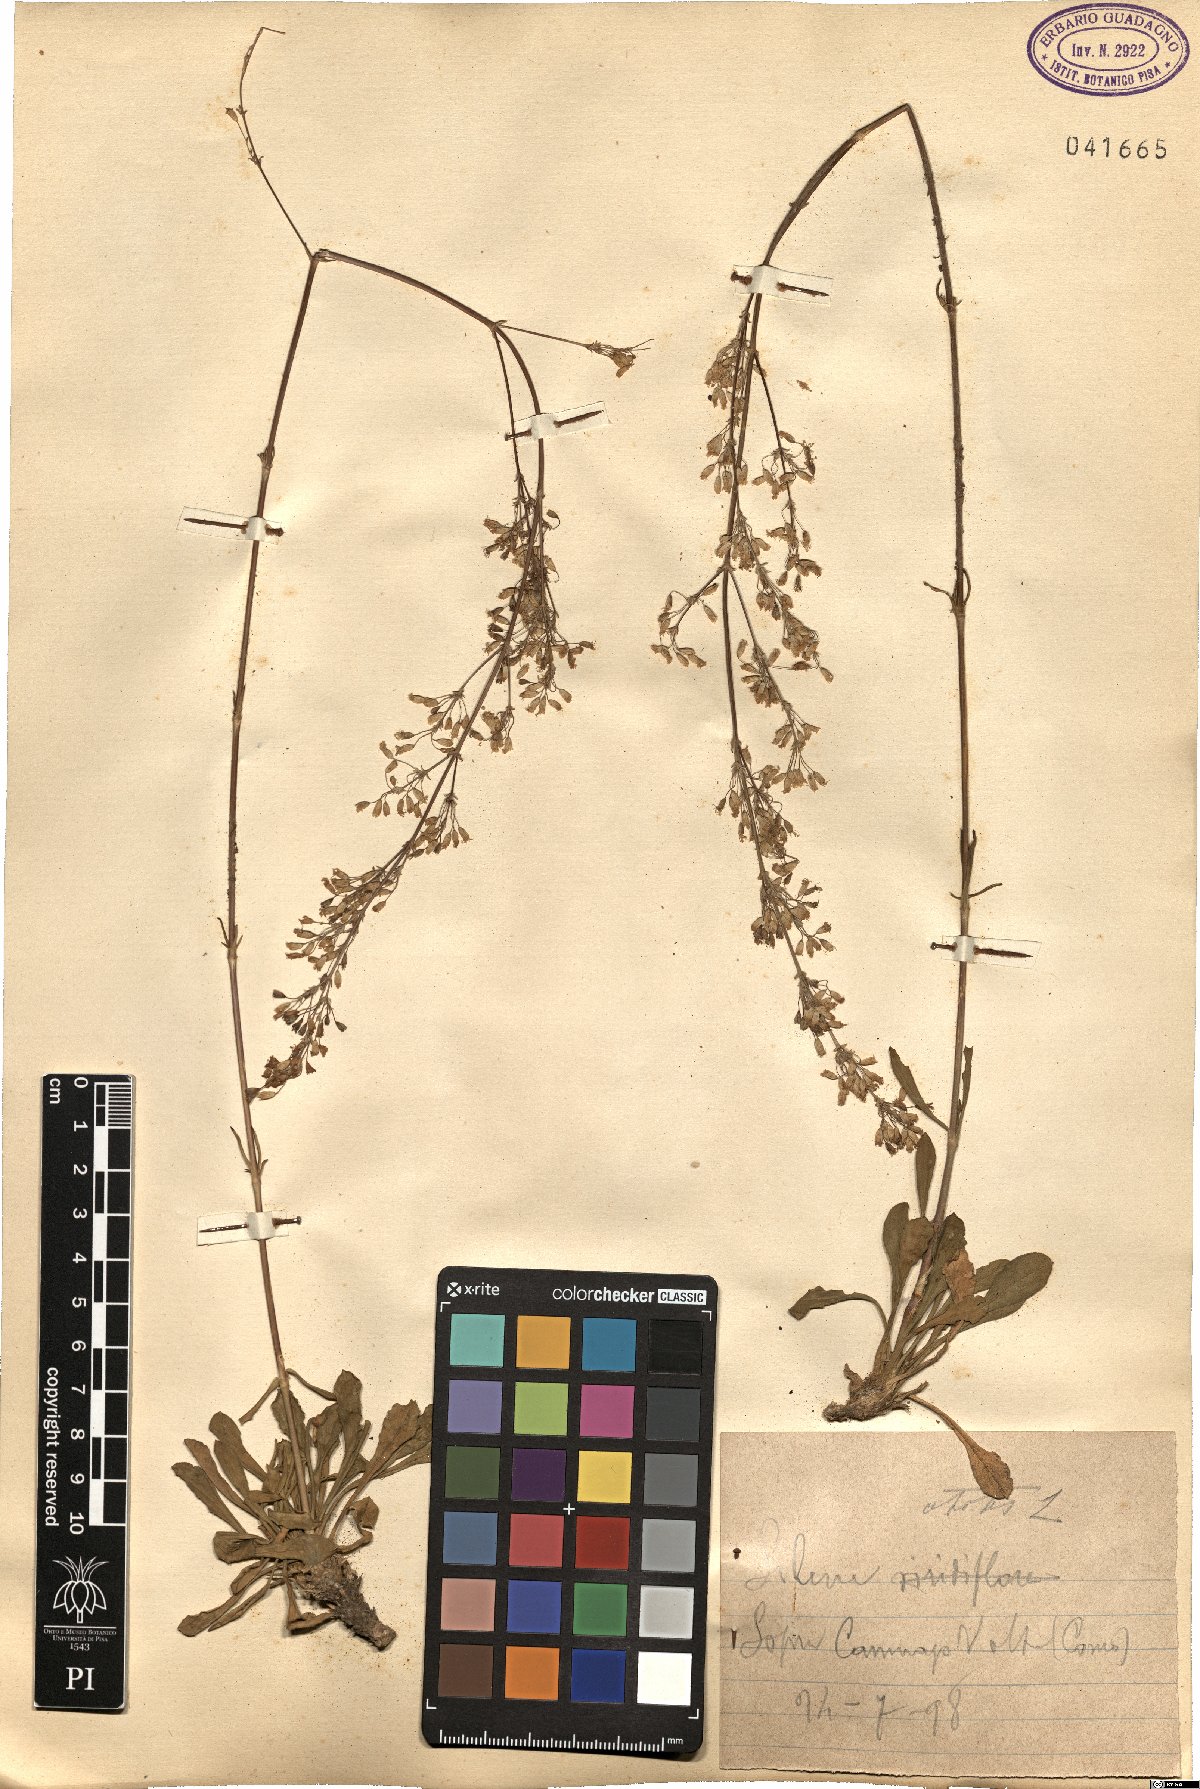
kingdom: Plantae
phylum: Tracheophyta
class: Magnoliopsida
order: Caryophyllales
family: Caryophyllaceae
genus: Silene
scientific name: Silene otites
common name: Spanish catchfly
